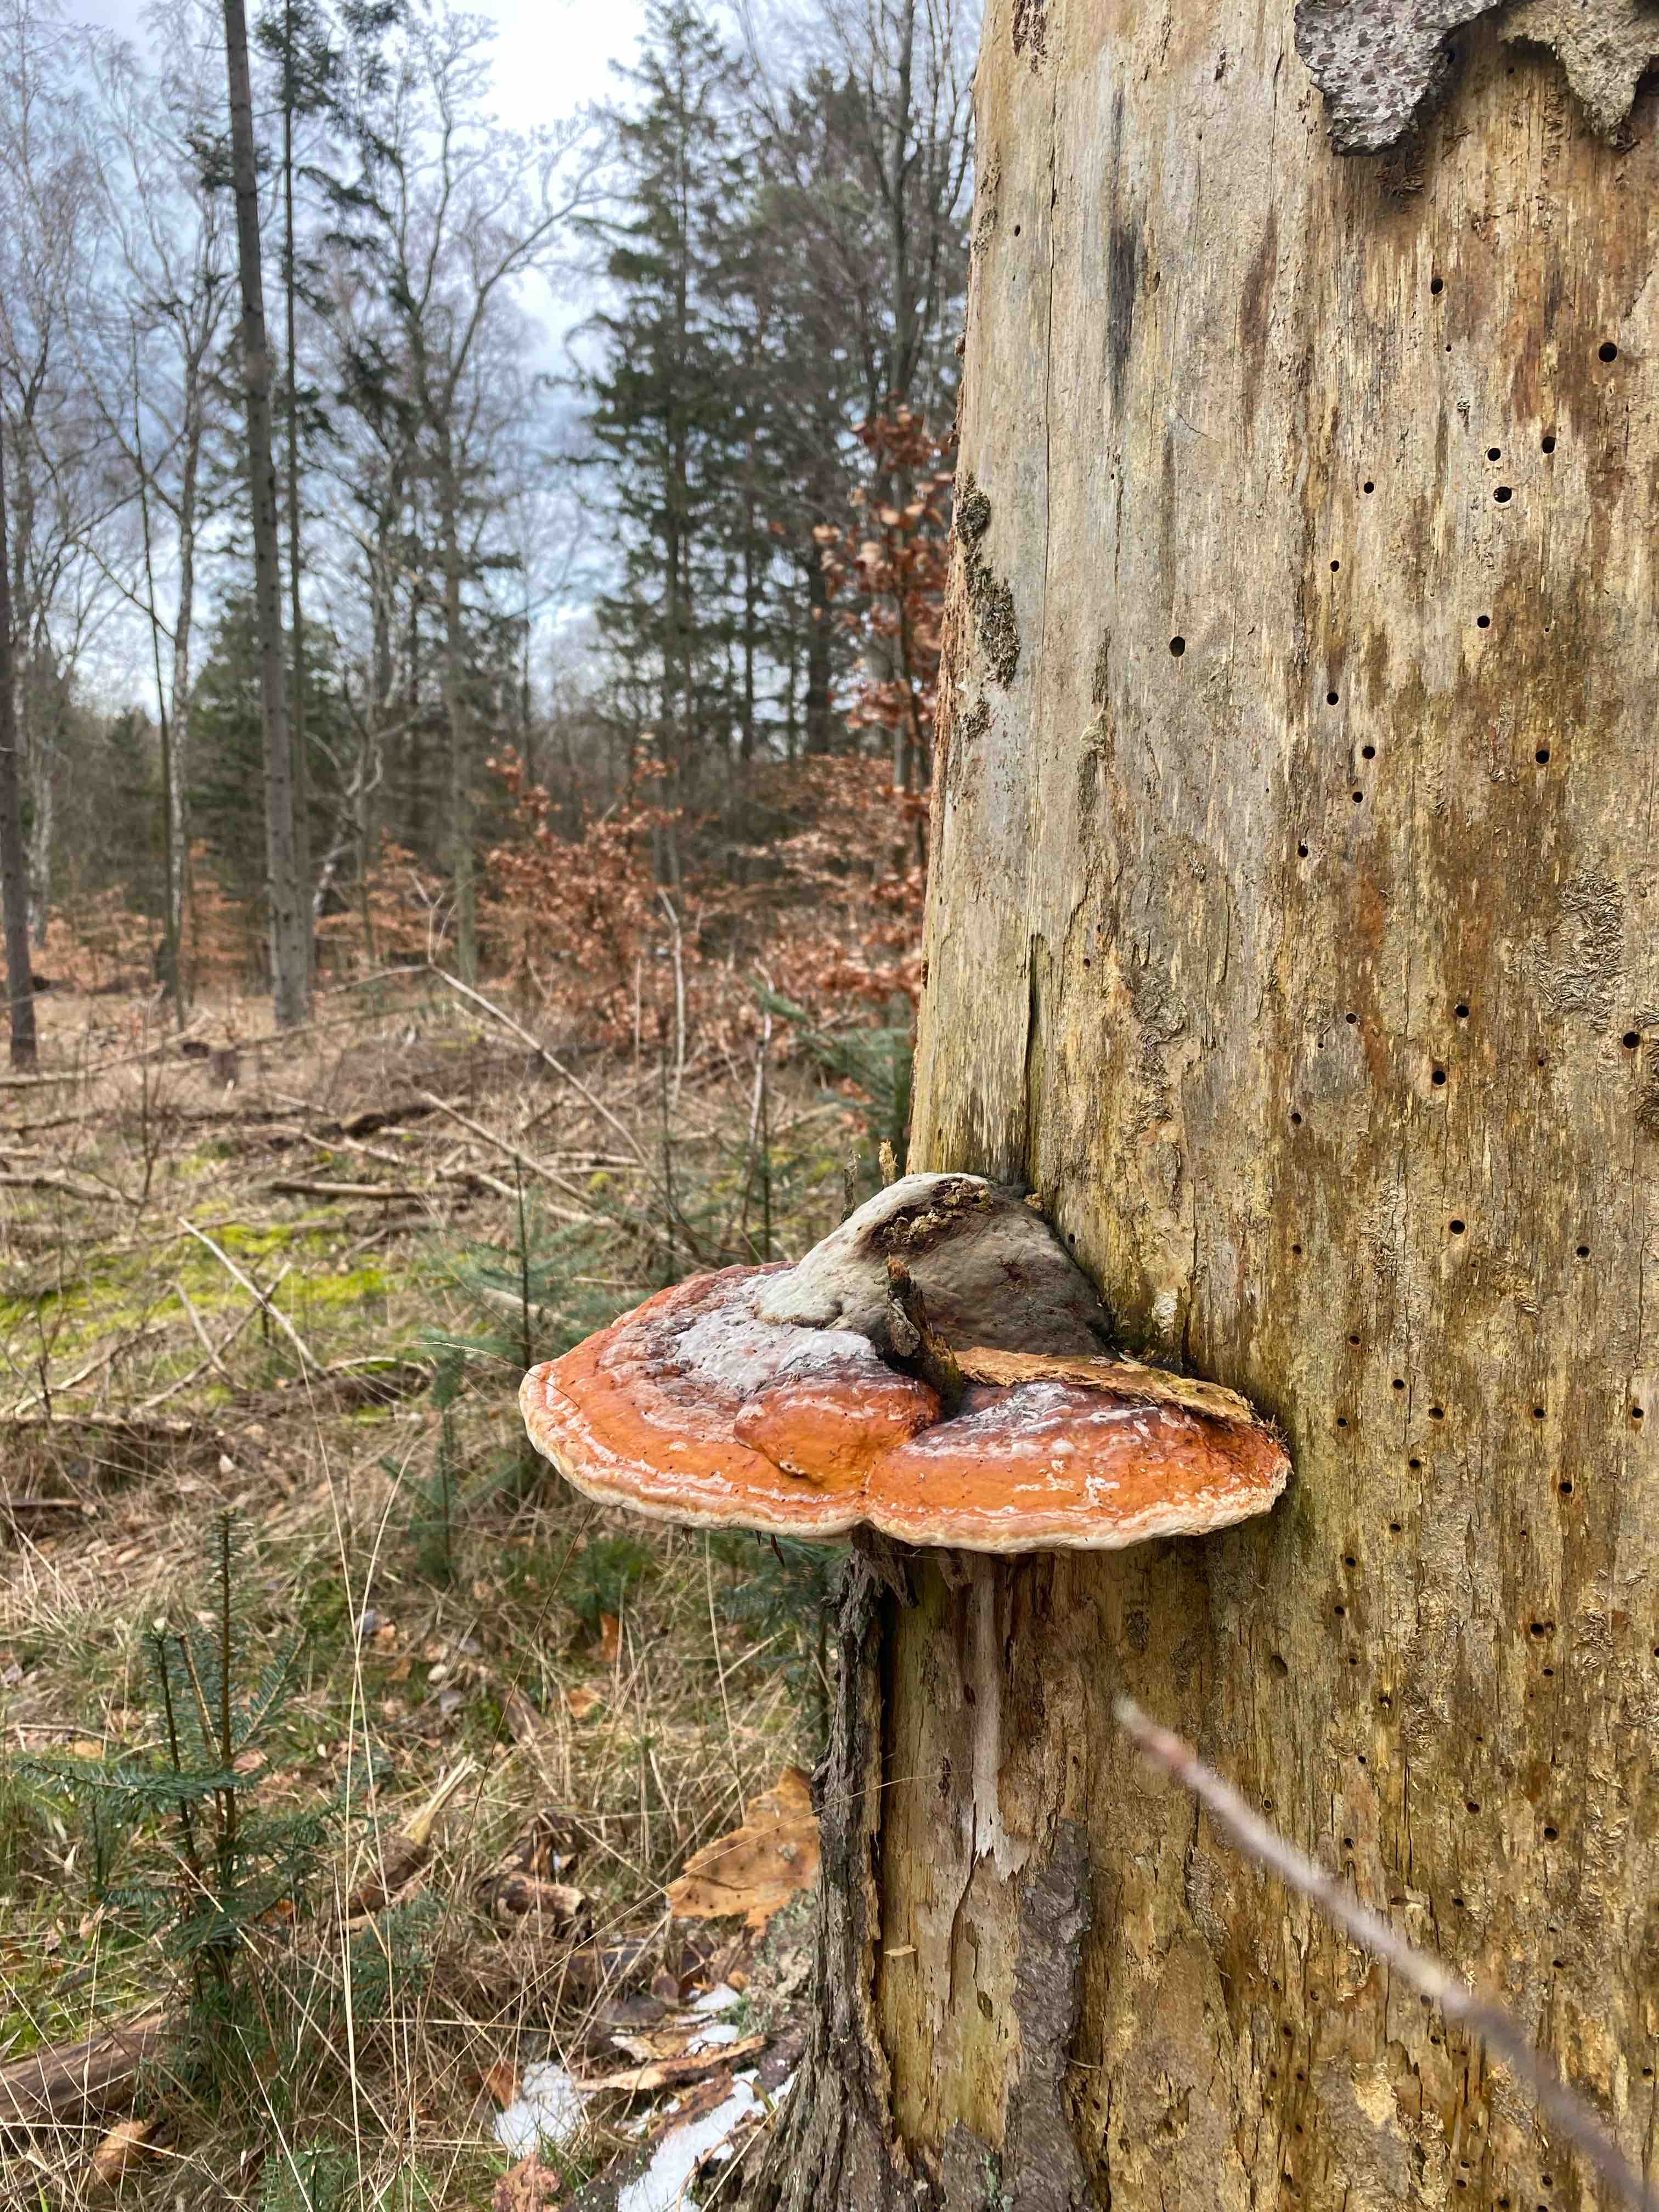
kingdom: Fungi
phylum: Basidiomycota
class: Agaricomycetes
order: Polyporales
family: Fomitopsidaceae
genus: Fomitopsis
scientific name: Fomitopsis pinicola
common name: randbæltet hovporesvamp
